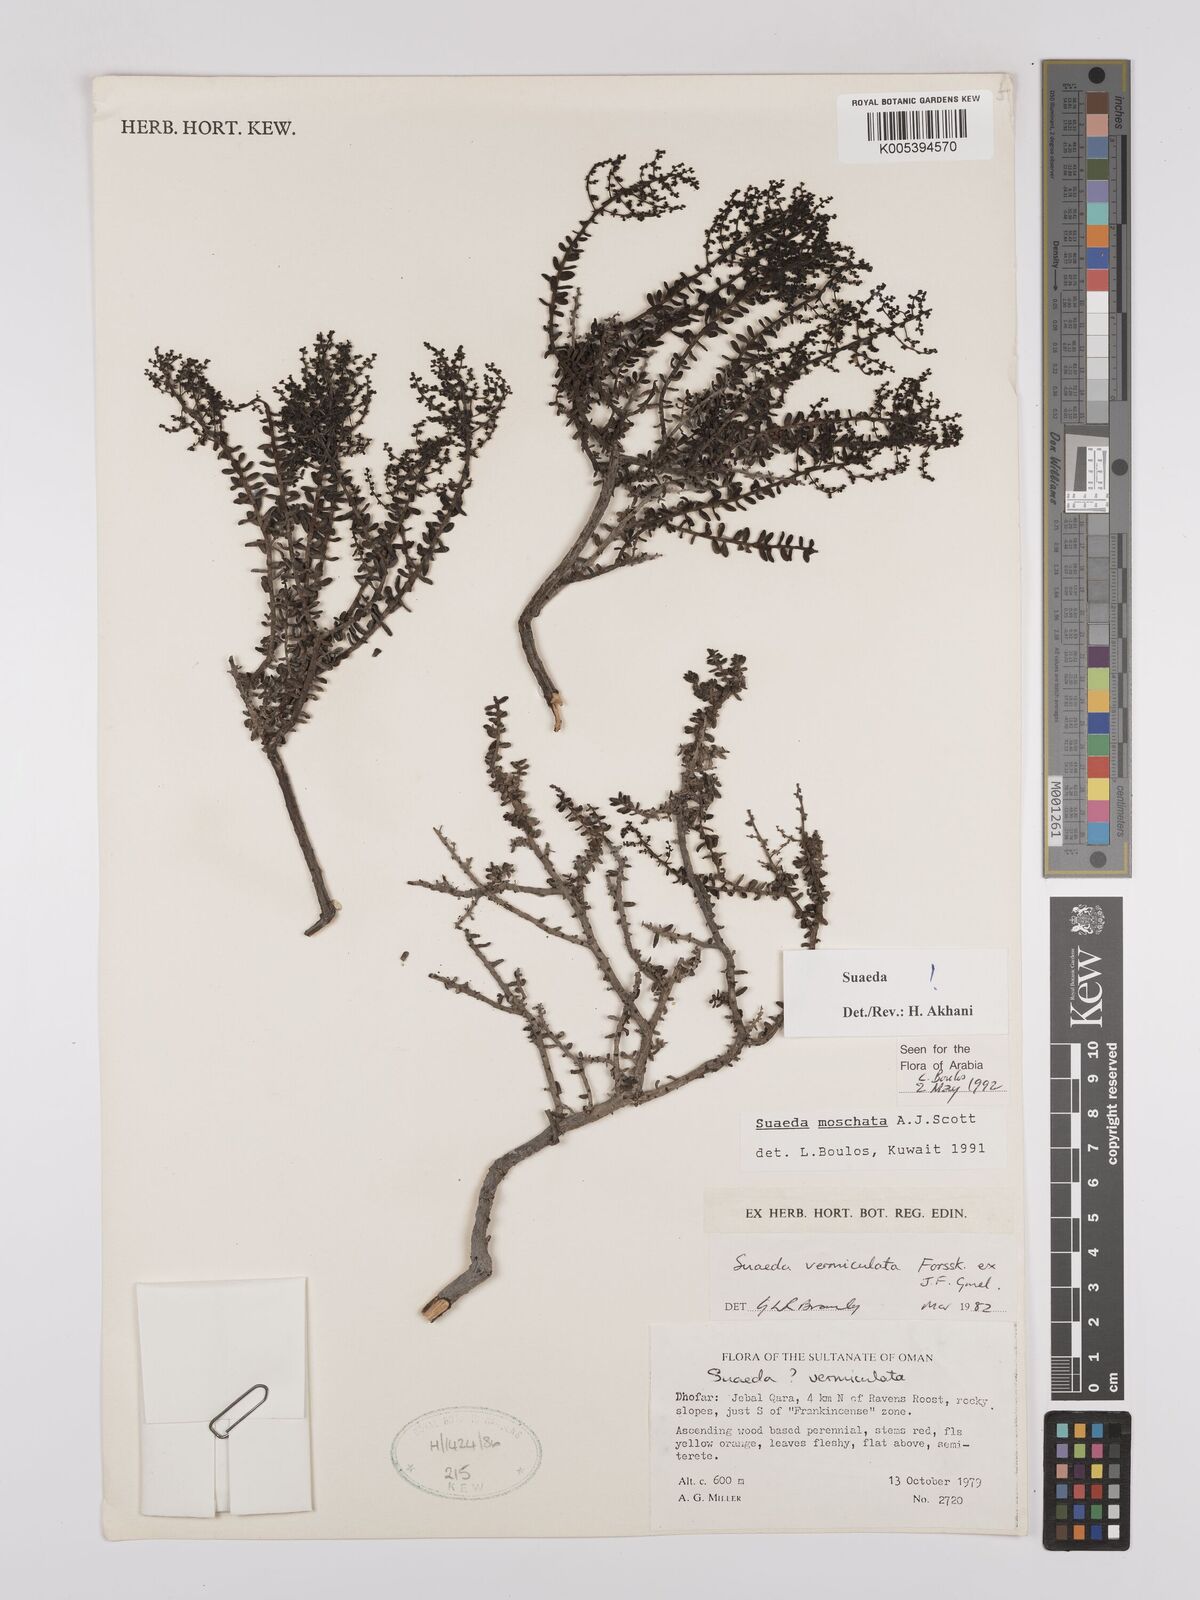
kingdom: Plantae
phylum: Tracheophyta
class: Magnoliopsida
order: Caryophyllales
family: Amaranthaceae
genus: Suaeda
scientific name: Suaeda
